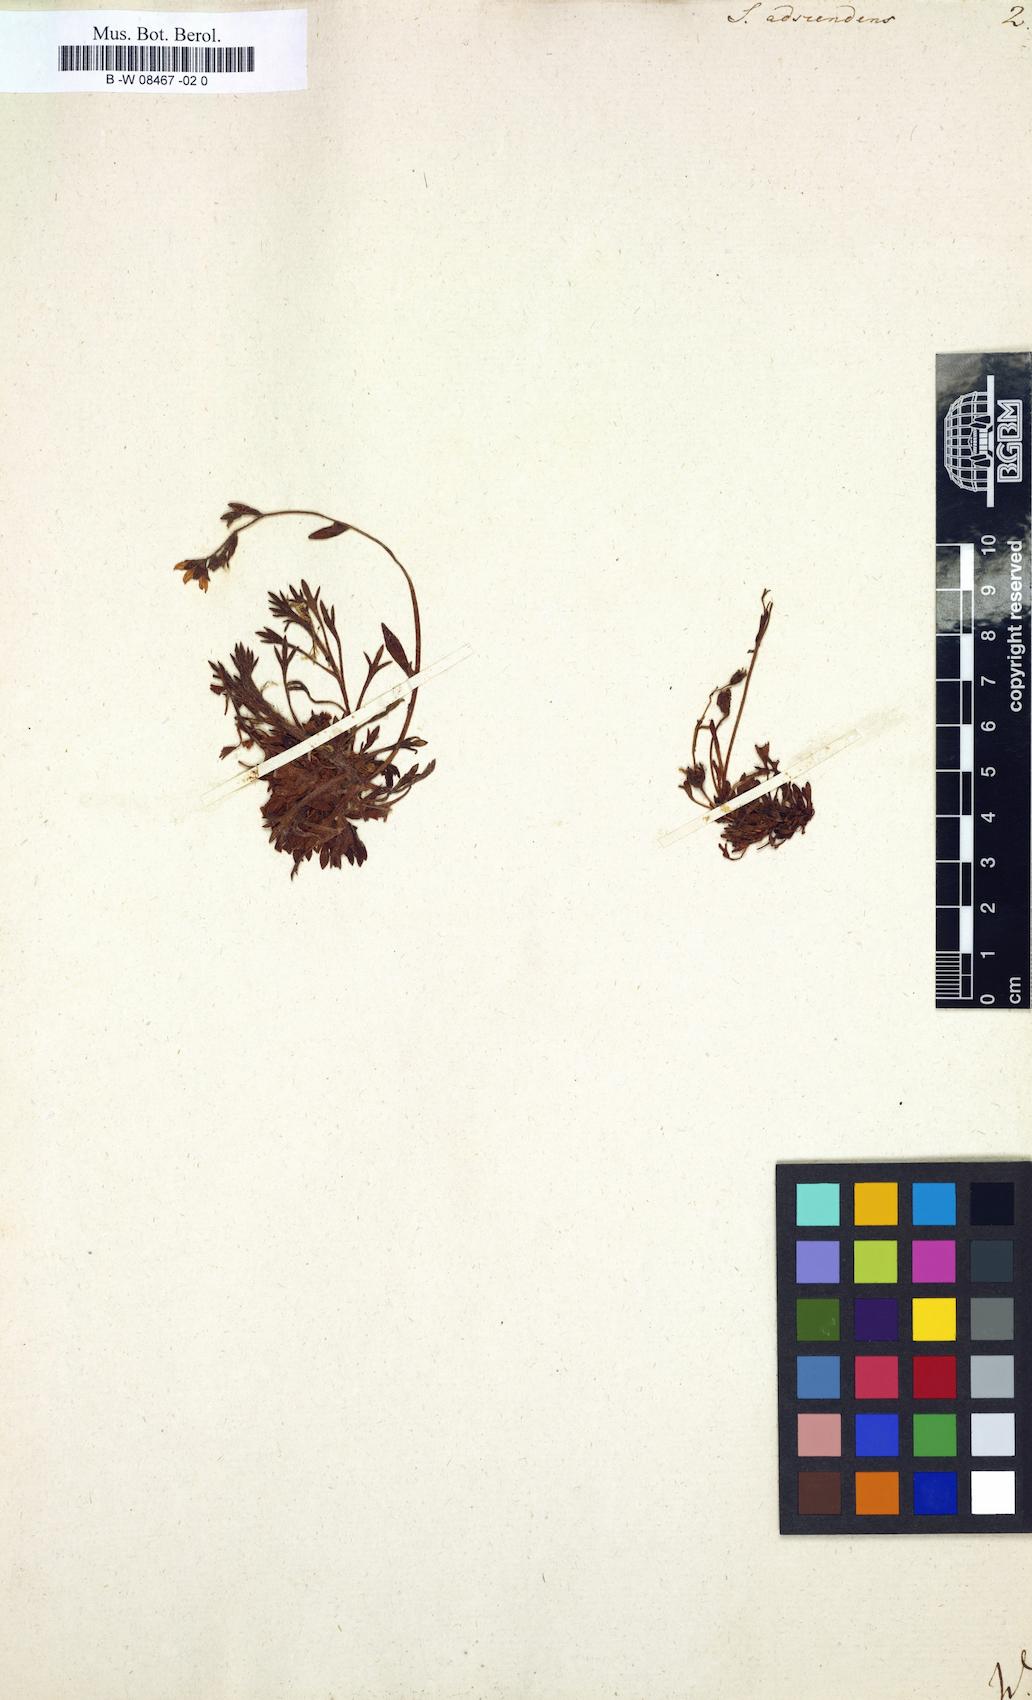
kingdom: Plantae
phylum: Tracheophyta
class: Magnoliopsida
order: Saxifragales
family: Saxifragaceae
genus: Saxifraga
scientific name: Saxifraga adscendens
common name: Ascending saxifrage
